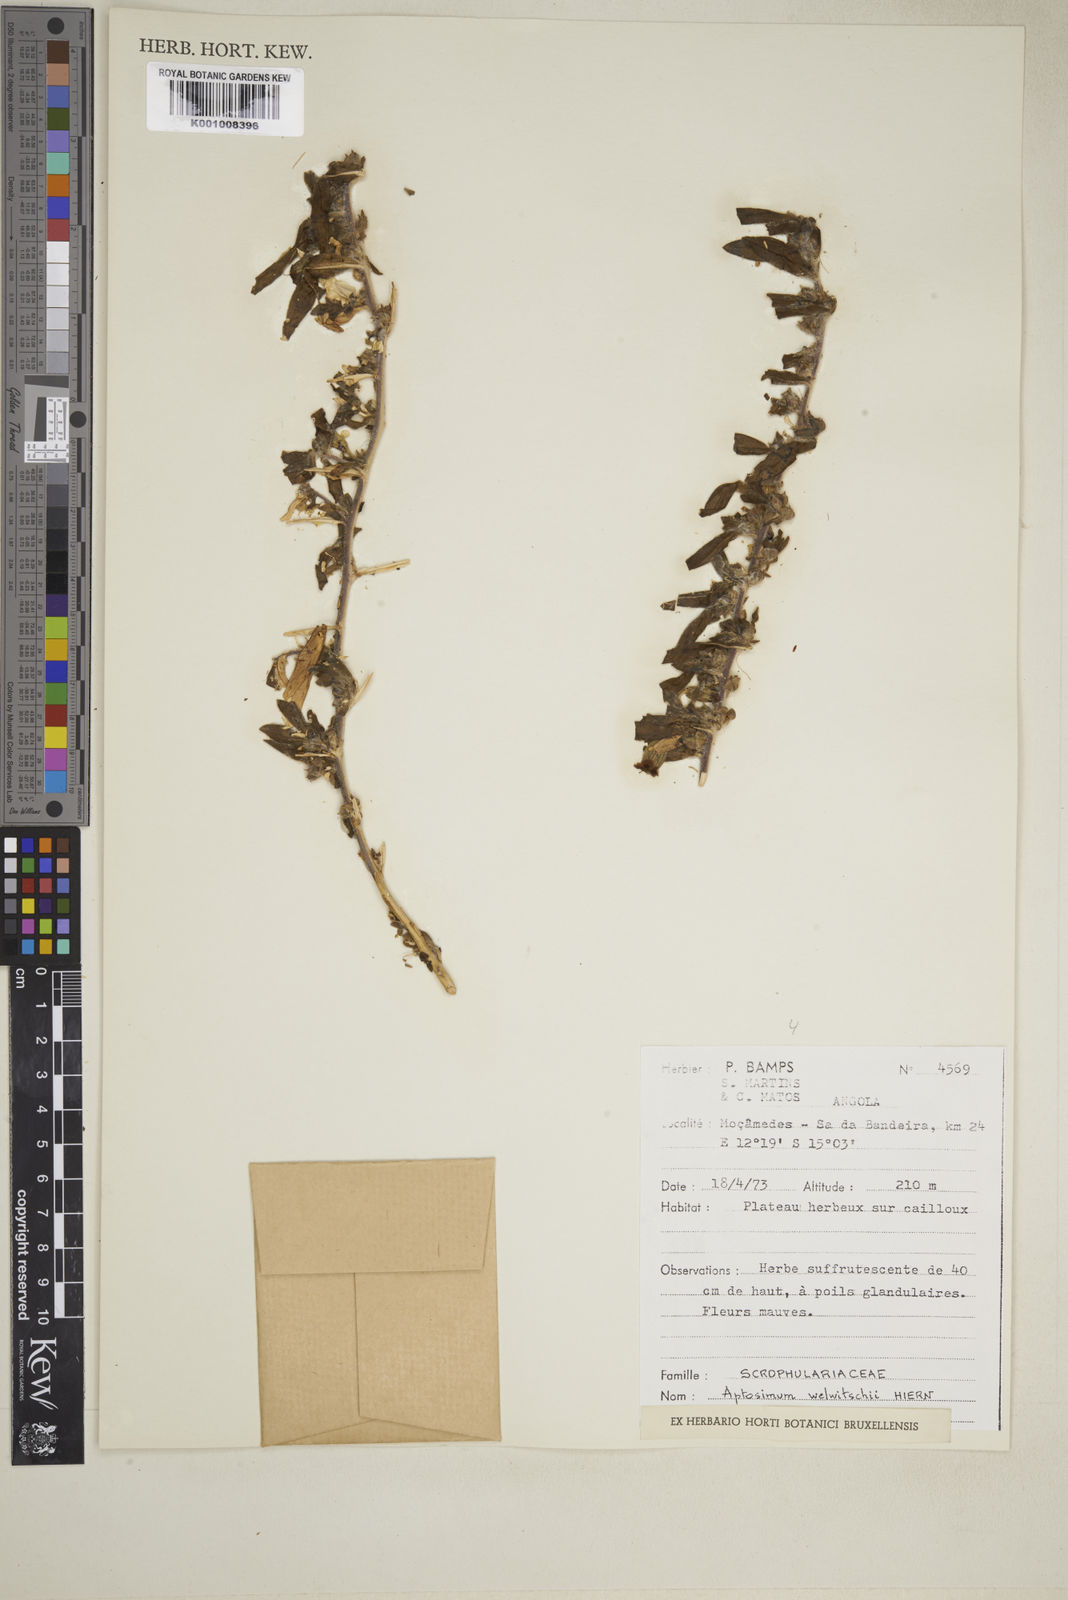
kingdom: Plantae
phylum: Tracheophyta
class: Magnoliopsida
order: Lamiales
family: Scrophulariaceae
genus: Aptosimum
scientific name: Aptosimum welwitschii
